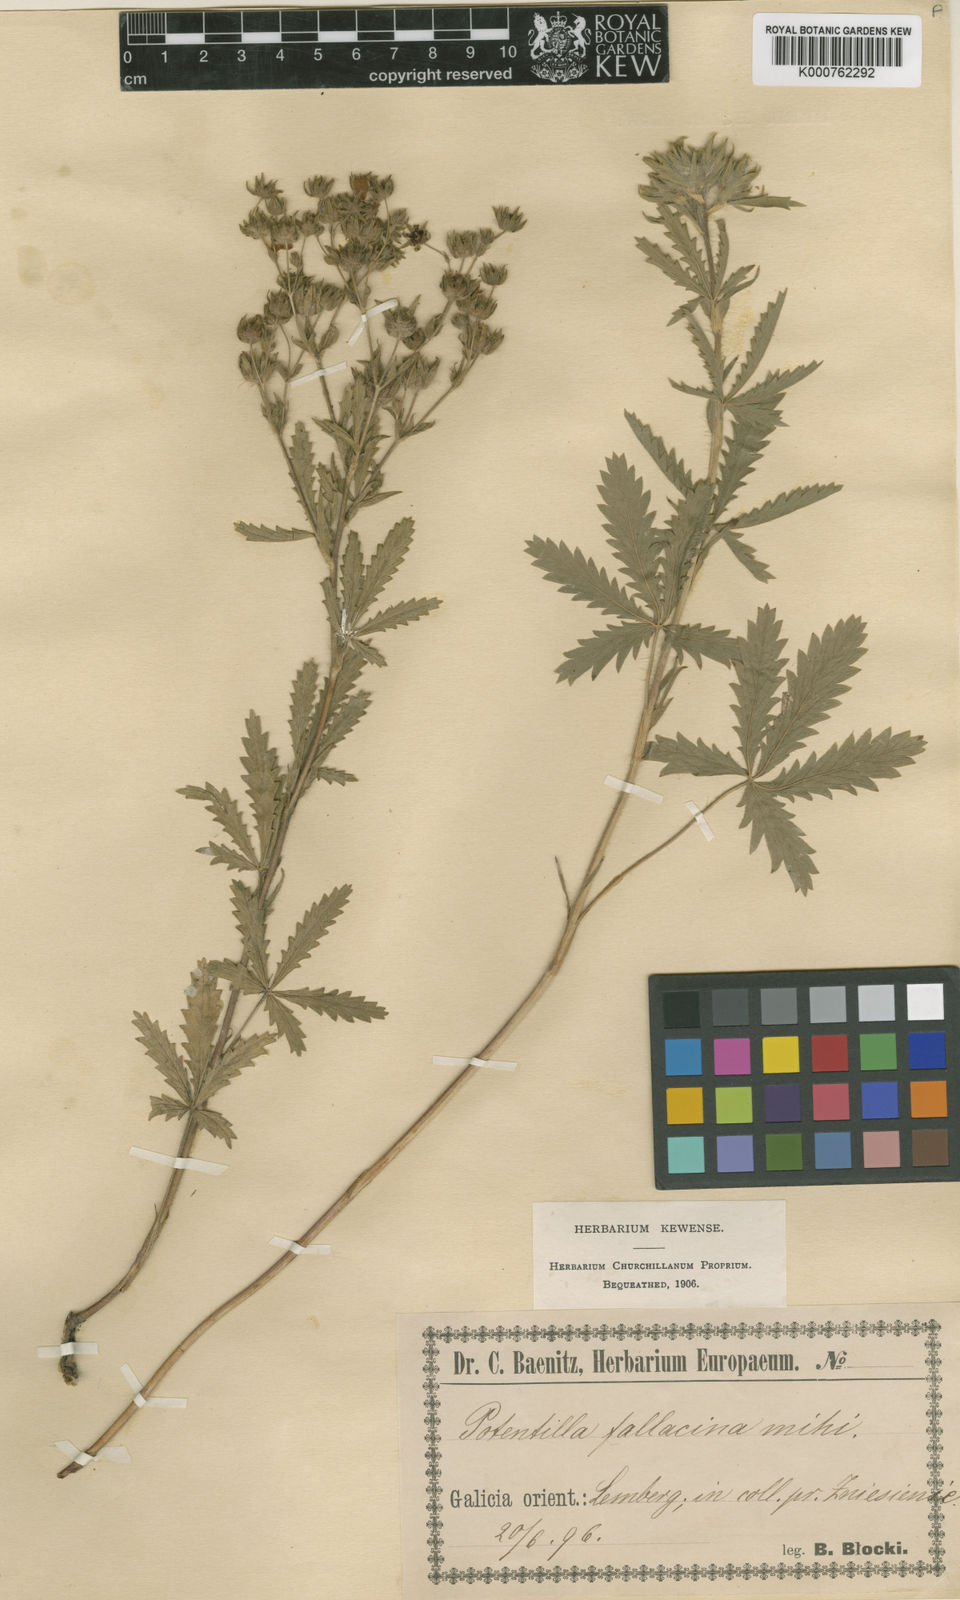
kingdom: Plantae
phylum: Tracheophyta
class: Magnoliopsida
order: Rosales
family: Rosaceae
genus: Potentilla
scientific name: Potentilla recta
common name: Sulphur cinquefoil
